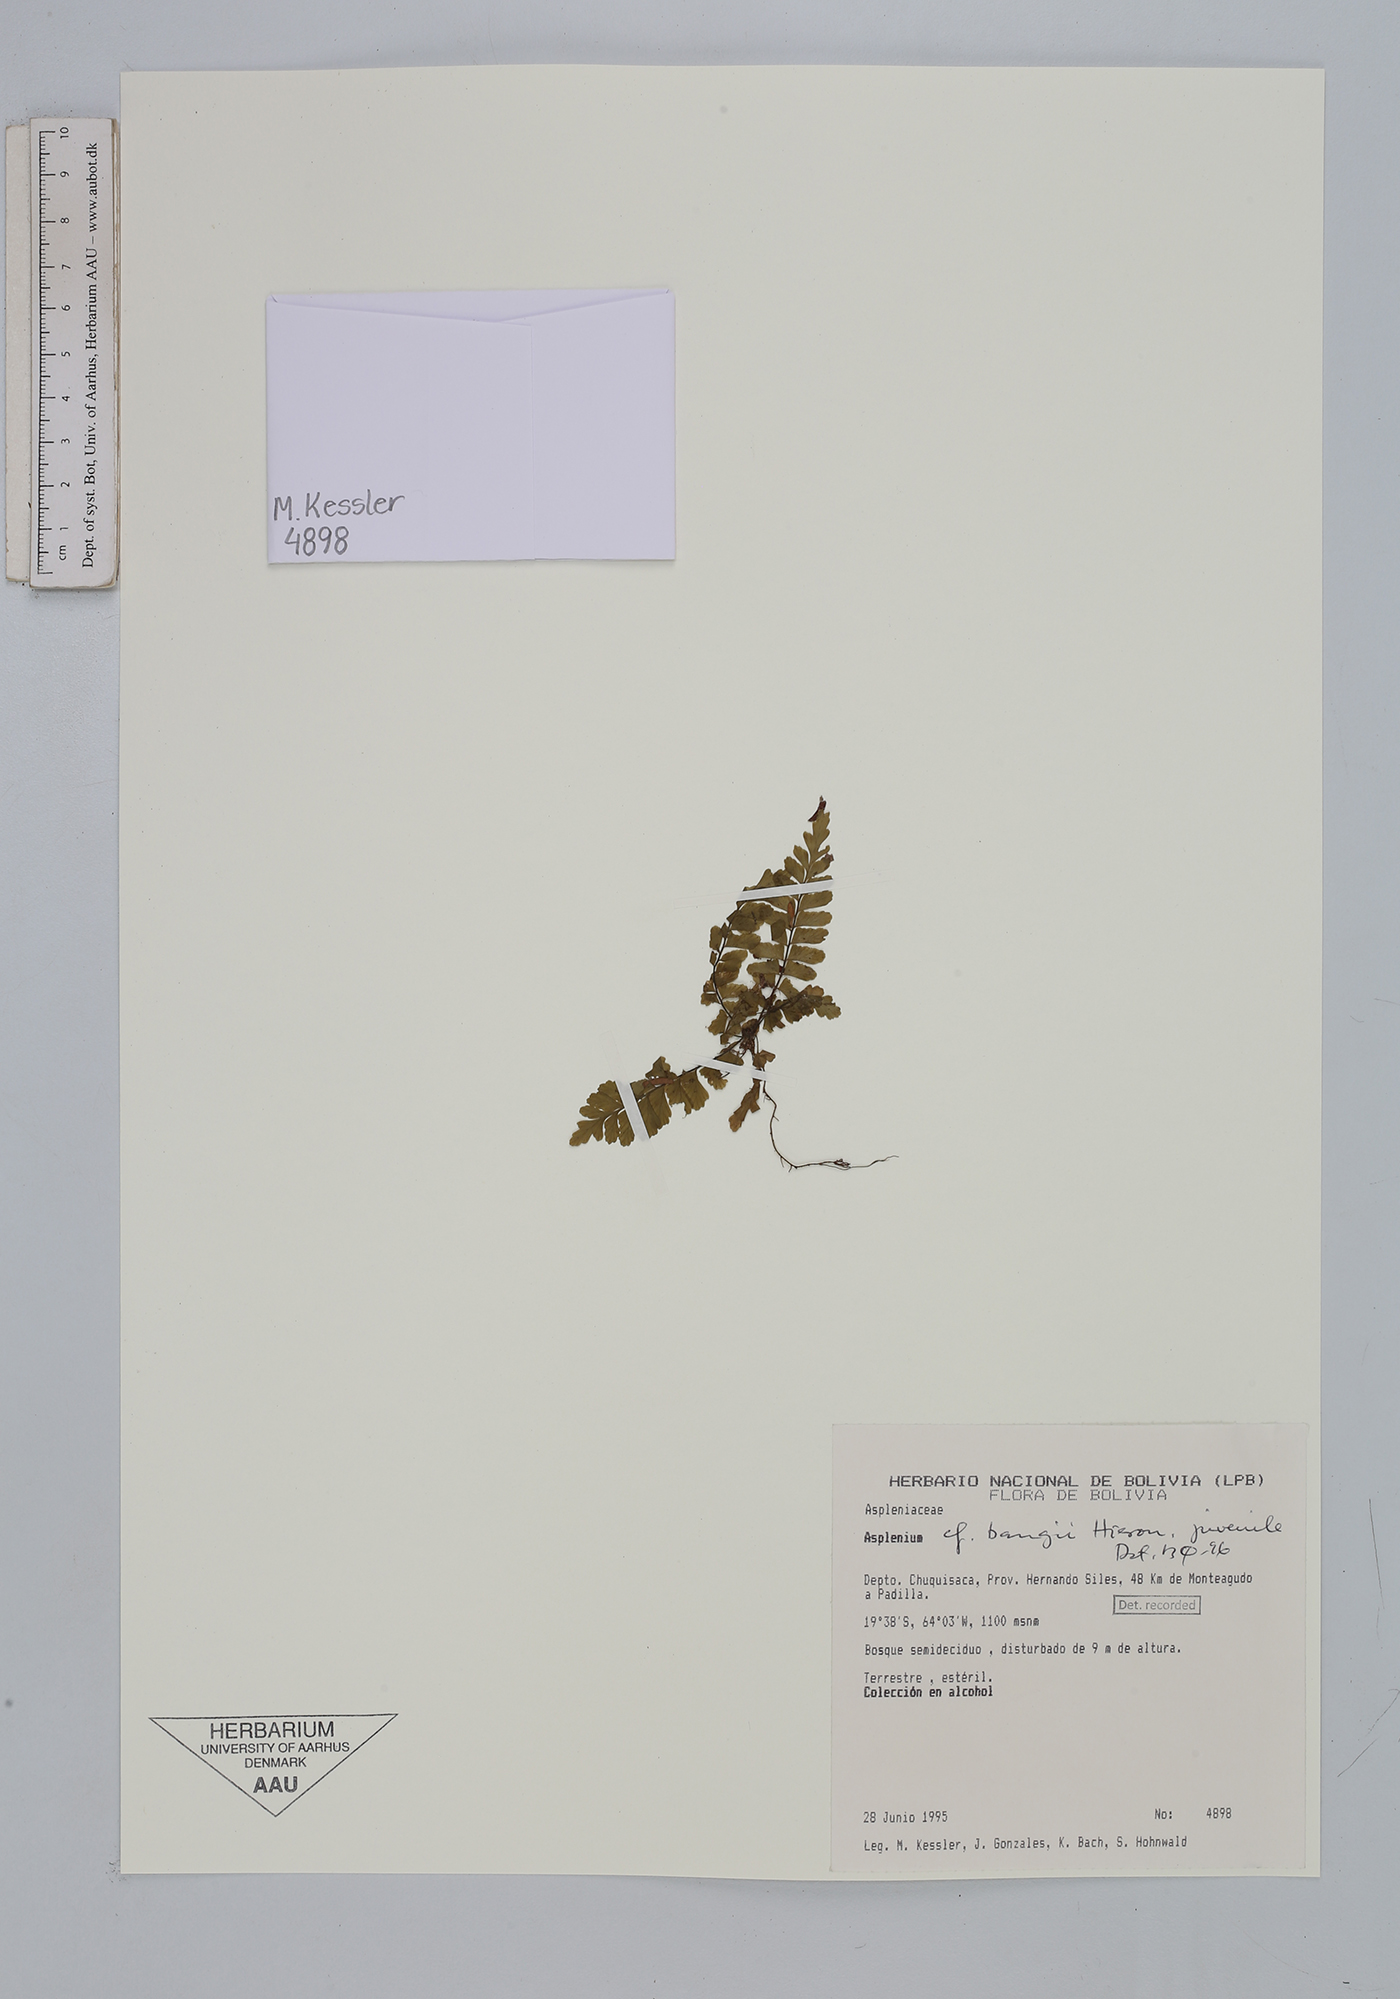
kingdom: Plantae
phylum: Tracheophyta
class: Polypodiopsida
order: Polypodiales
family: Aspleniaceae
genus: Asplenium
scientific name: Asplenium bangii
